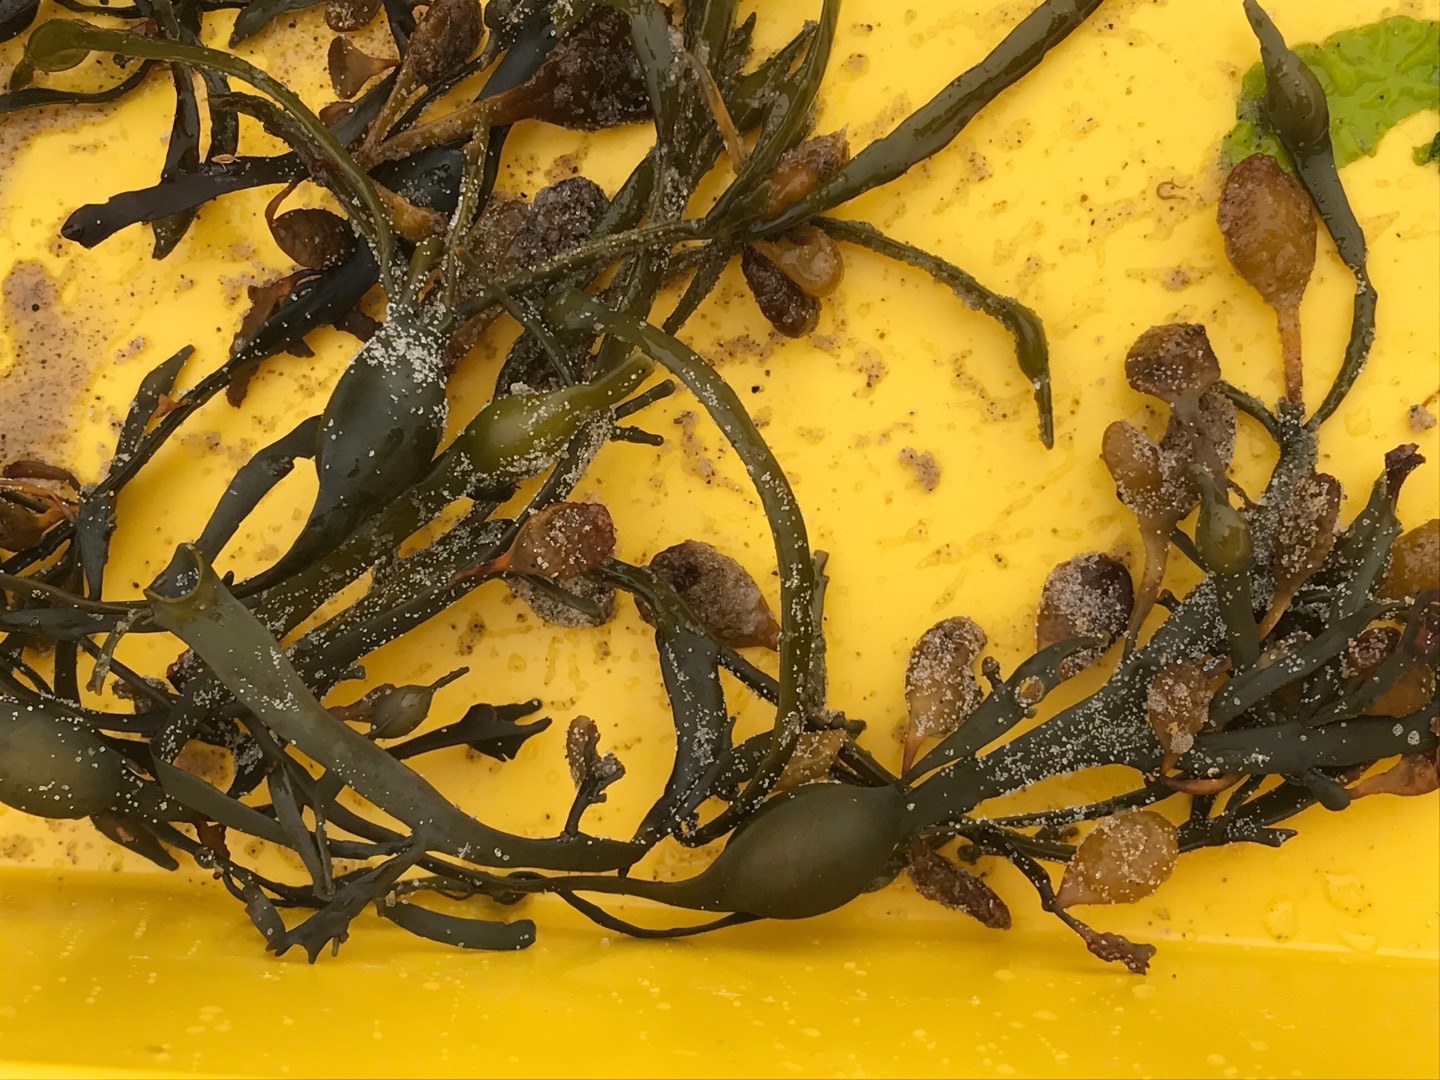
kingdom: Chromista
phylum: Ochrophyta
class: Phaeophyceae
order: Fucales
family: Fucaceae
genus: Ascophyllum
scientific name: Ascophyllum nodosum
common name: Buletang
